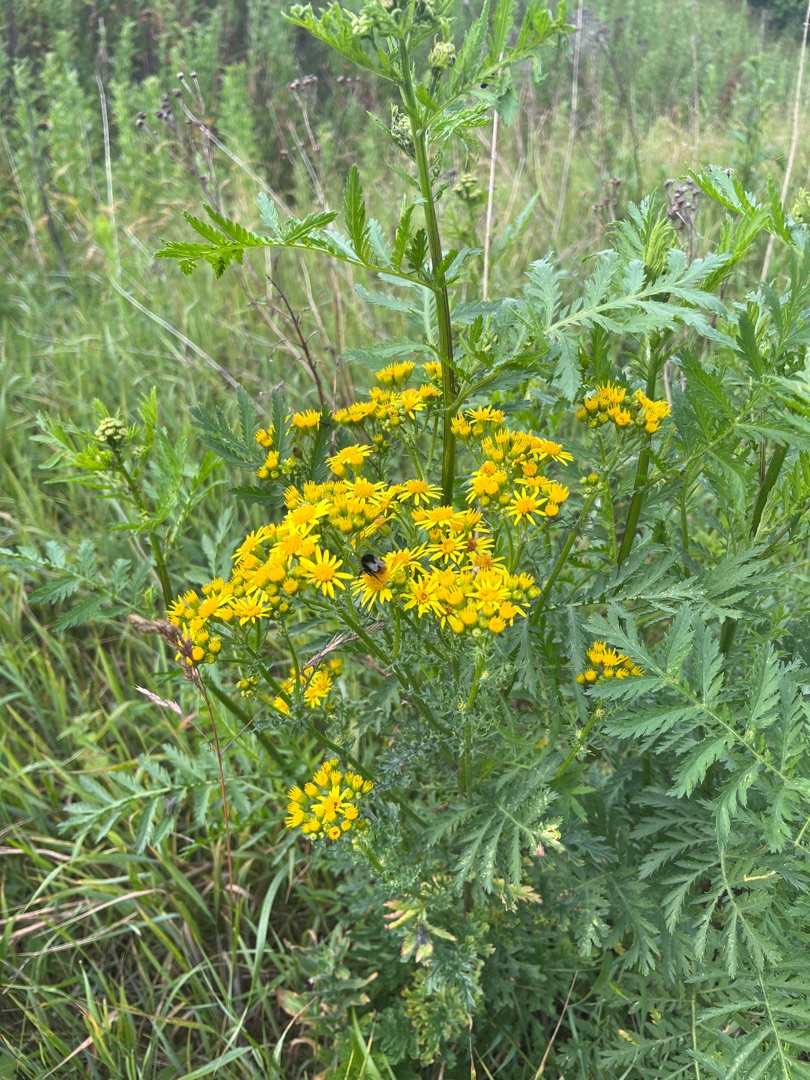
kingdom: Plantae
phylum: Tracheophyta
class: Magnoliopsida
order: Asterales
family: Asteraceae
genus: Jacobaea
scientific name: Jacobaea vulgaris
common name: Eng-brandbæger
